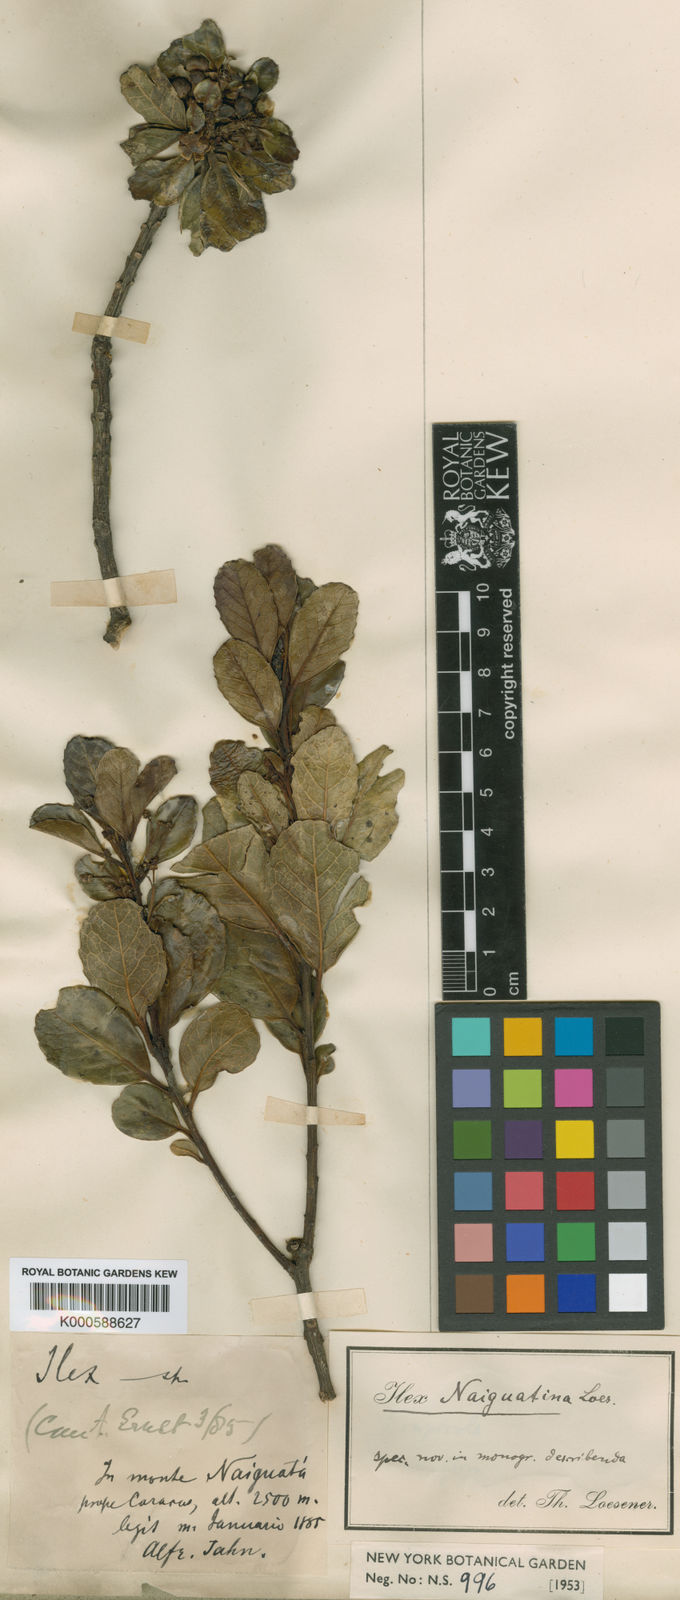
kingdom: Plantae
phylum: Tracheophyta
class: Magnoliopsida
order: Aquifoliales
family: Aquifoliaceae
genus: Ilex
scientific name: Ilex myricoides
